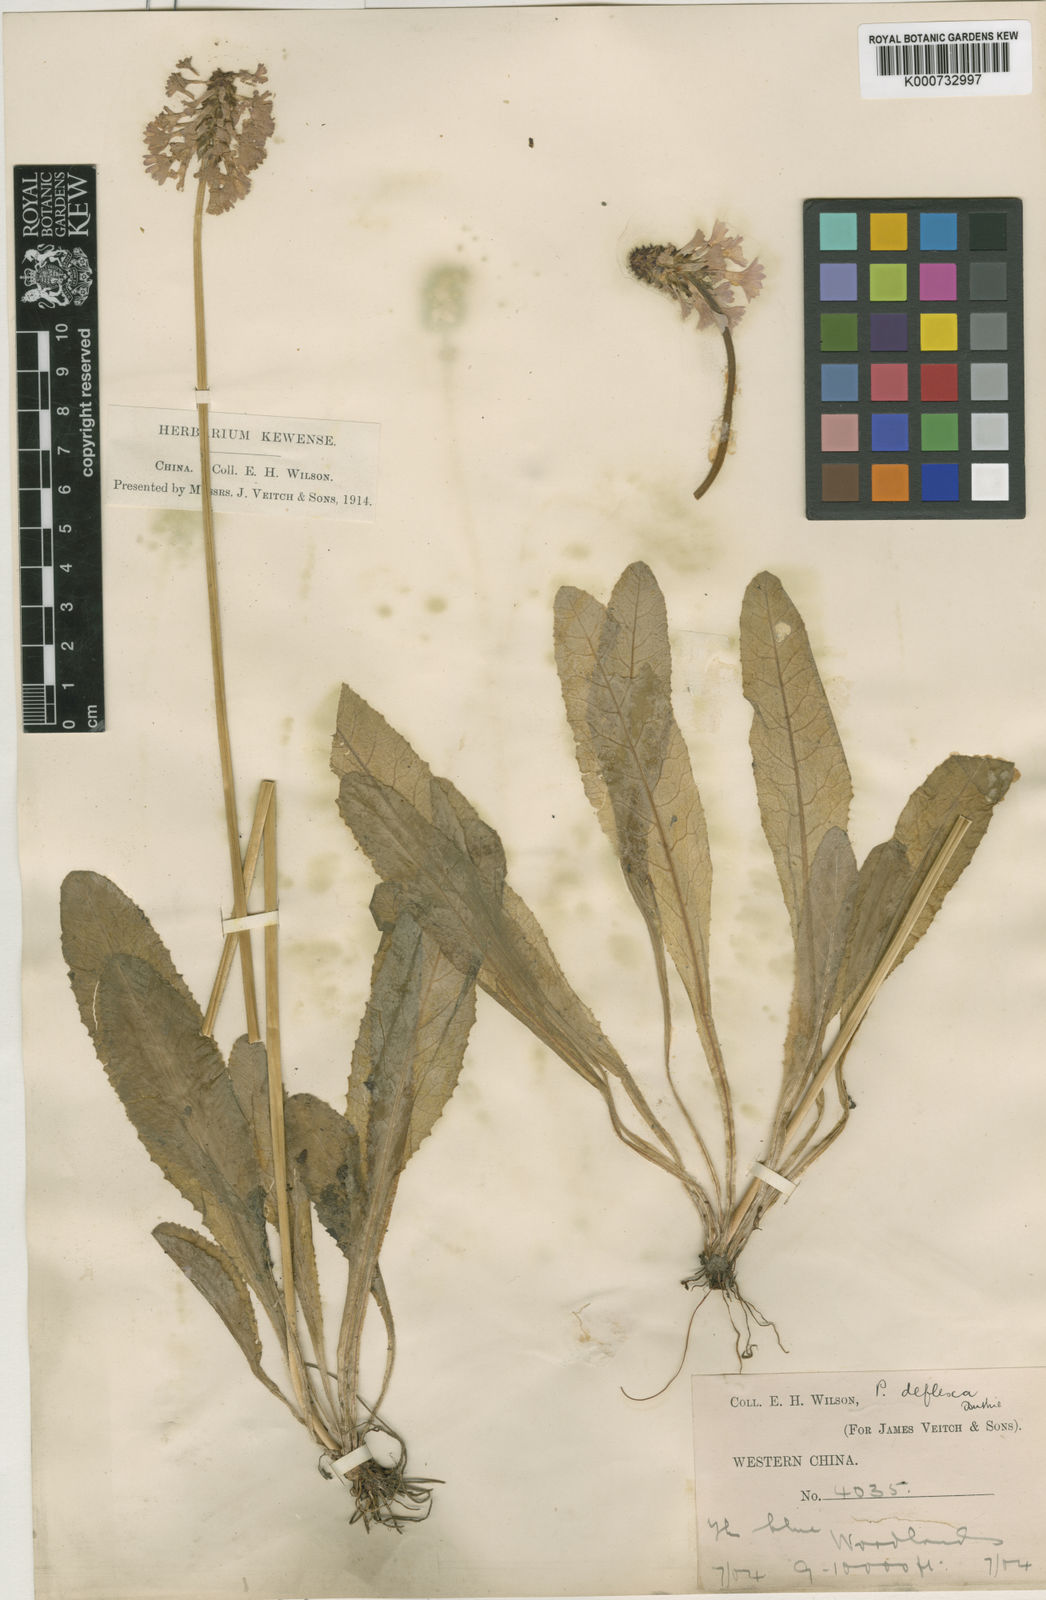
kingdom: Plantae
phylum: Tracheophyta
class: Magnoliopsida
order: Ericales
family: Primulaceae
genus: Primula
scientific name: Primula gracilenta
